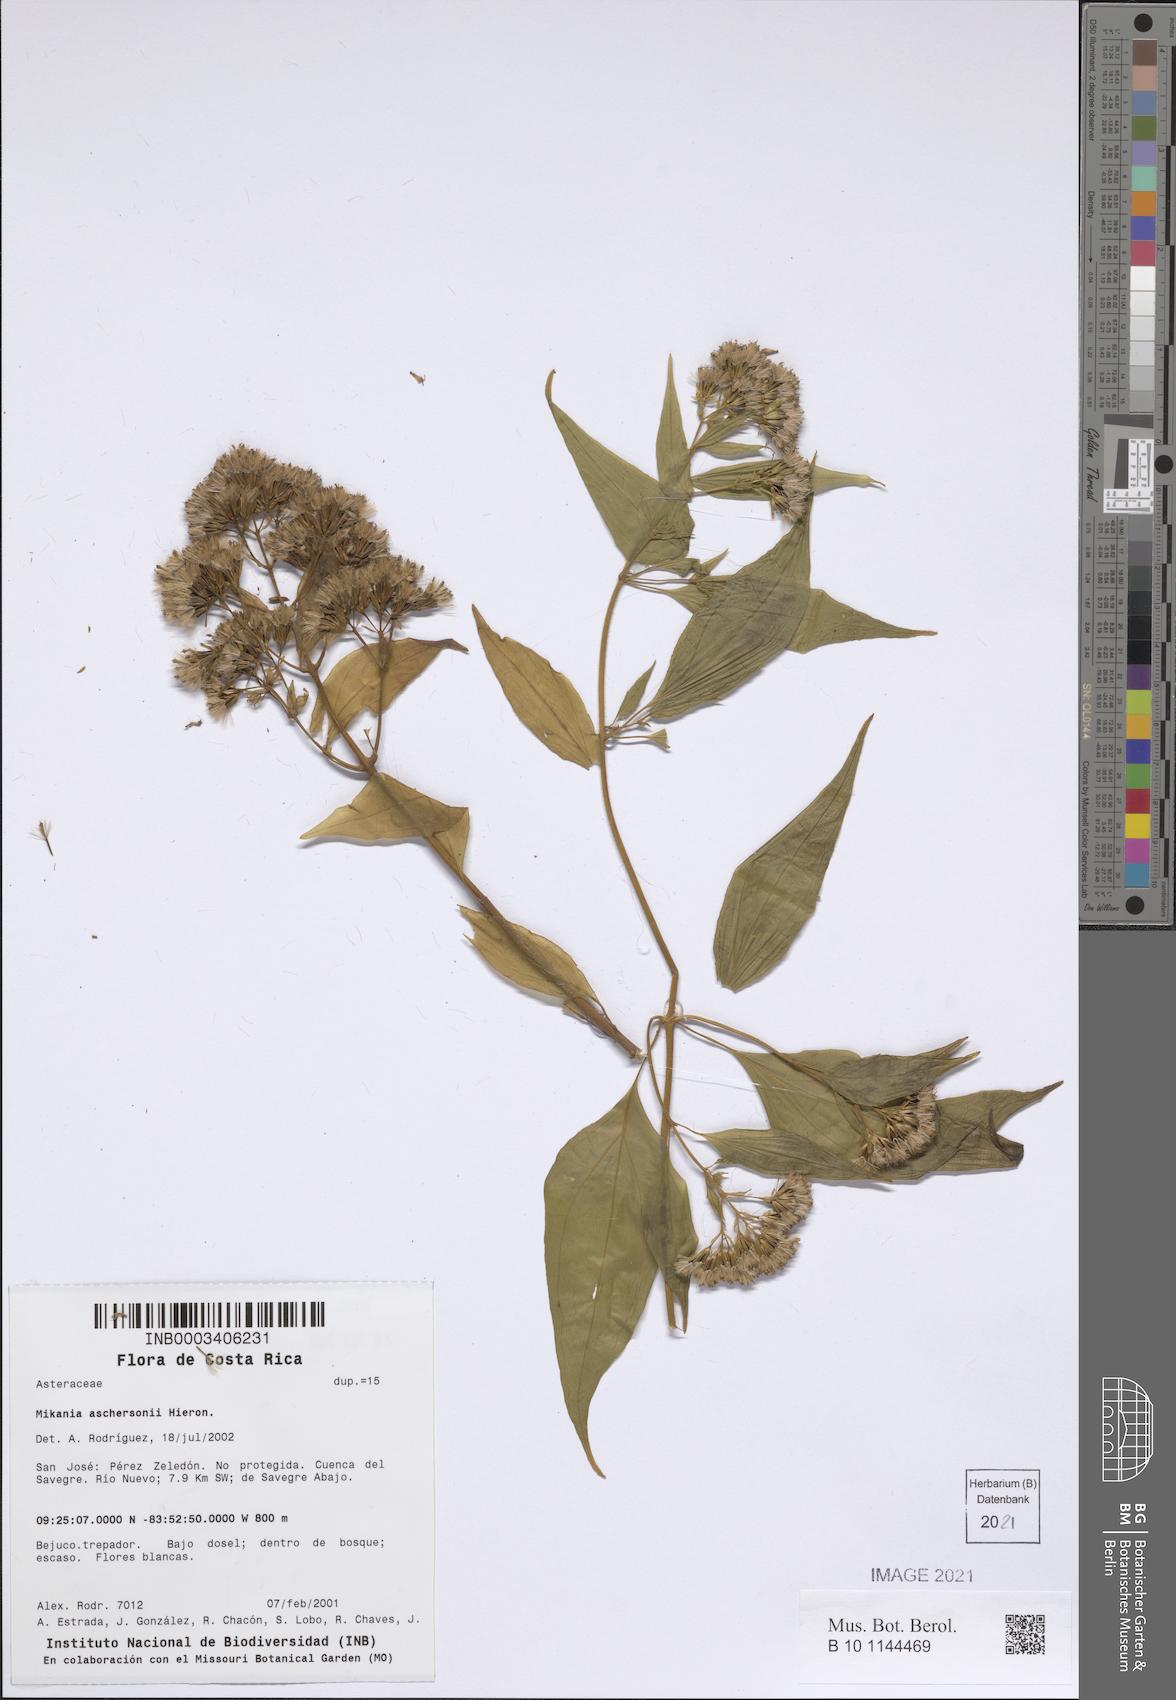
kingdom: Plantae
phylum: Tracheophyta
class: Magnoliopsida
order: Asterales
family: Asteraceae
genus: Mikania
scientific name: Mikania aschersonii
